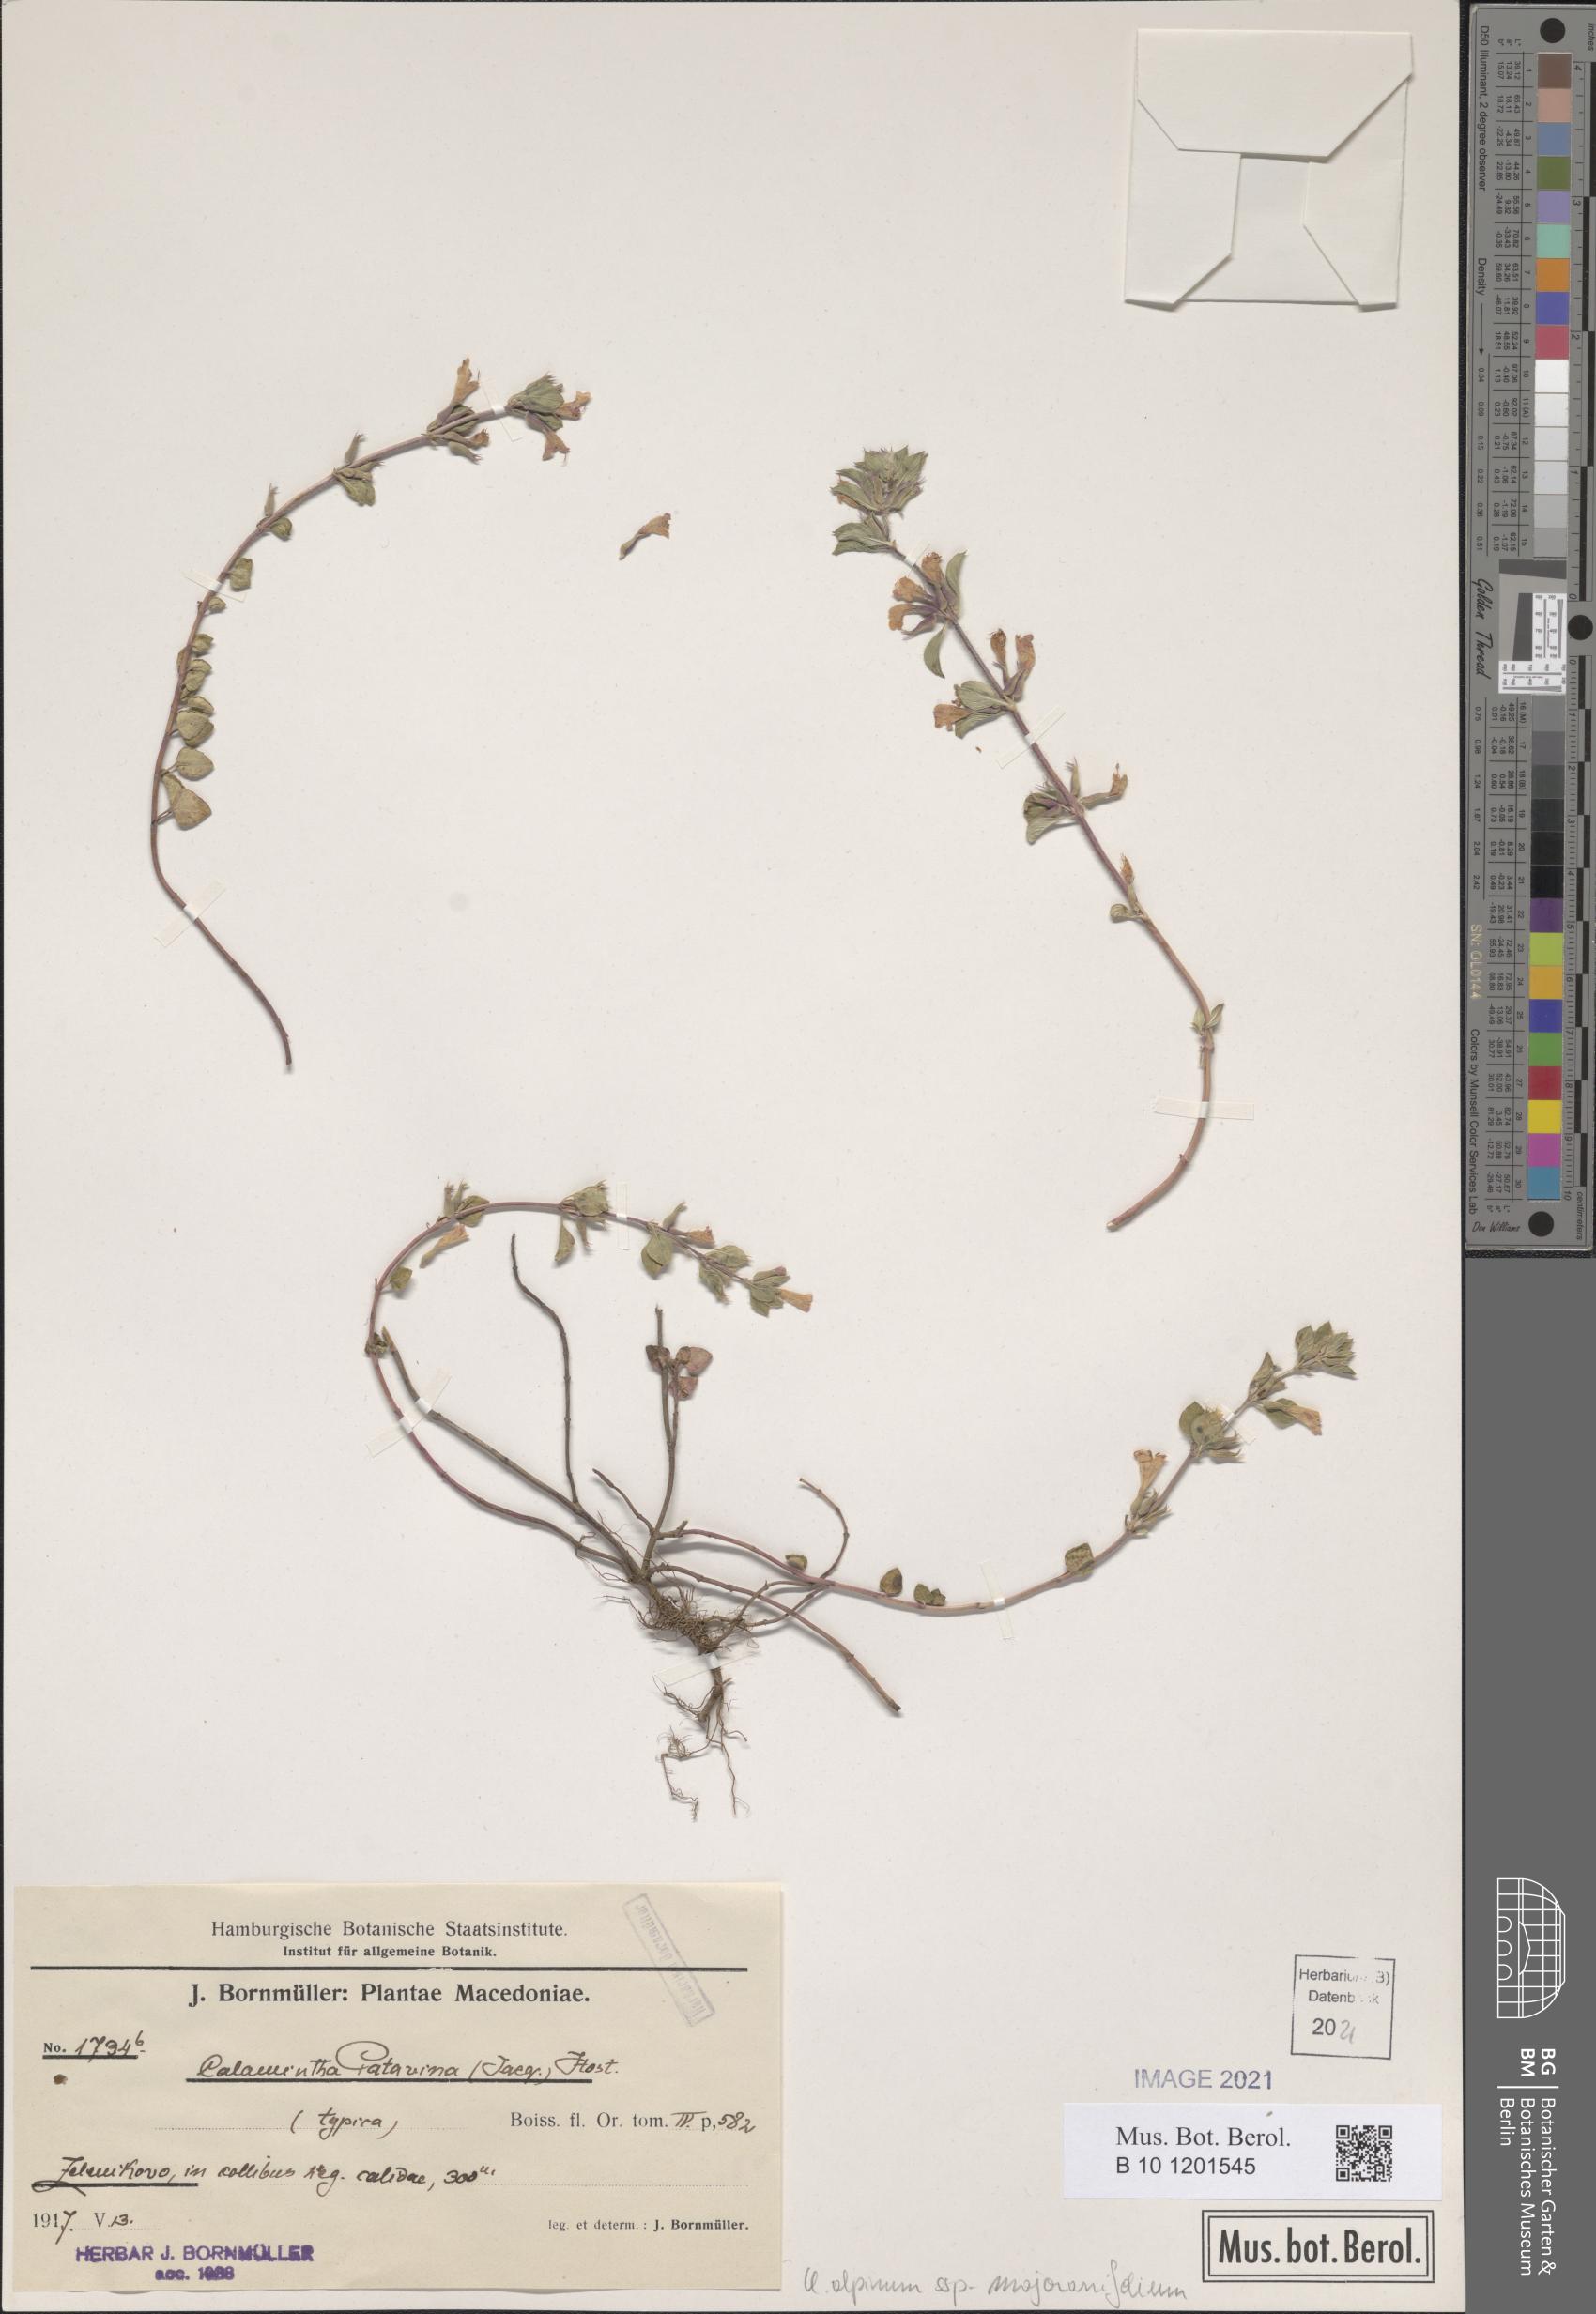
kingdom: Plantae
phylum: Tracheophyta
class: Magnoliopsida
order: Lamiales
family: Lamiaceae
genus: Clinopodium
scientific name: Clinopodium alpinum
